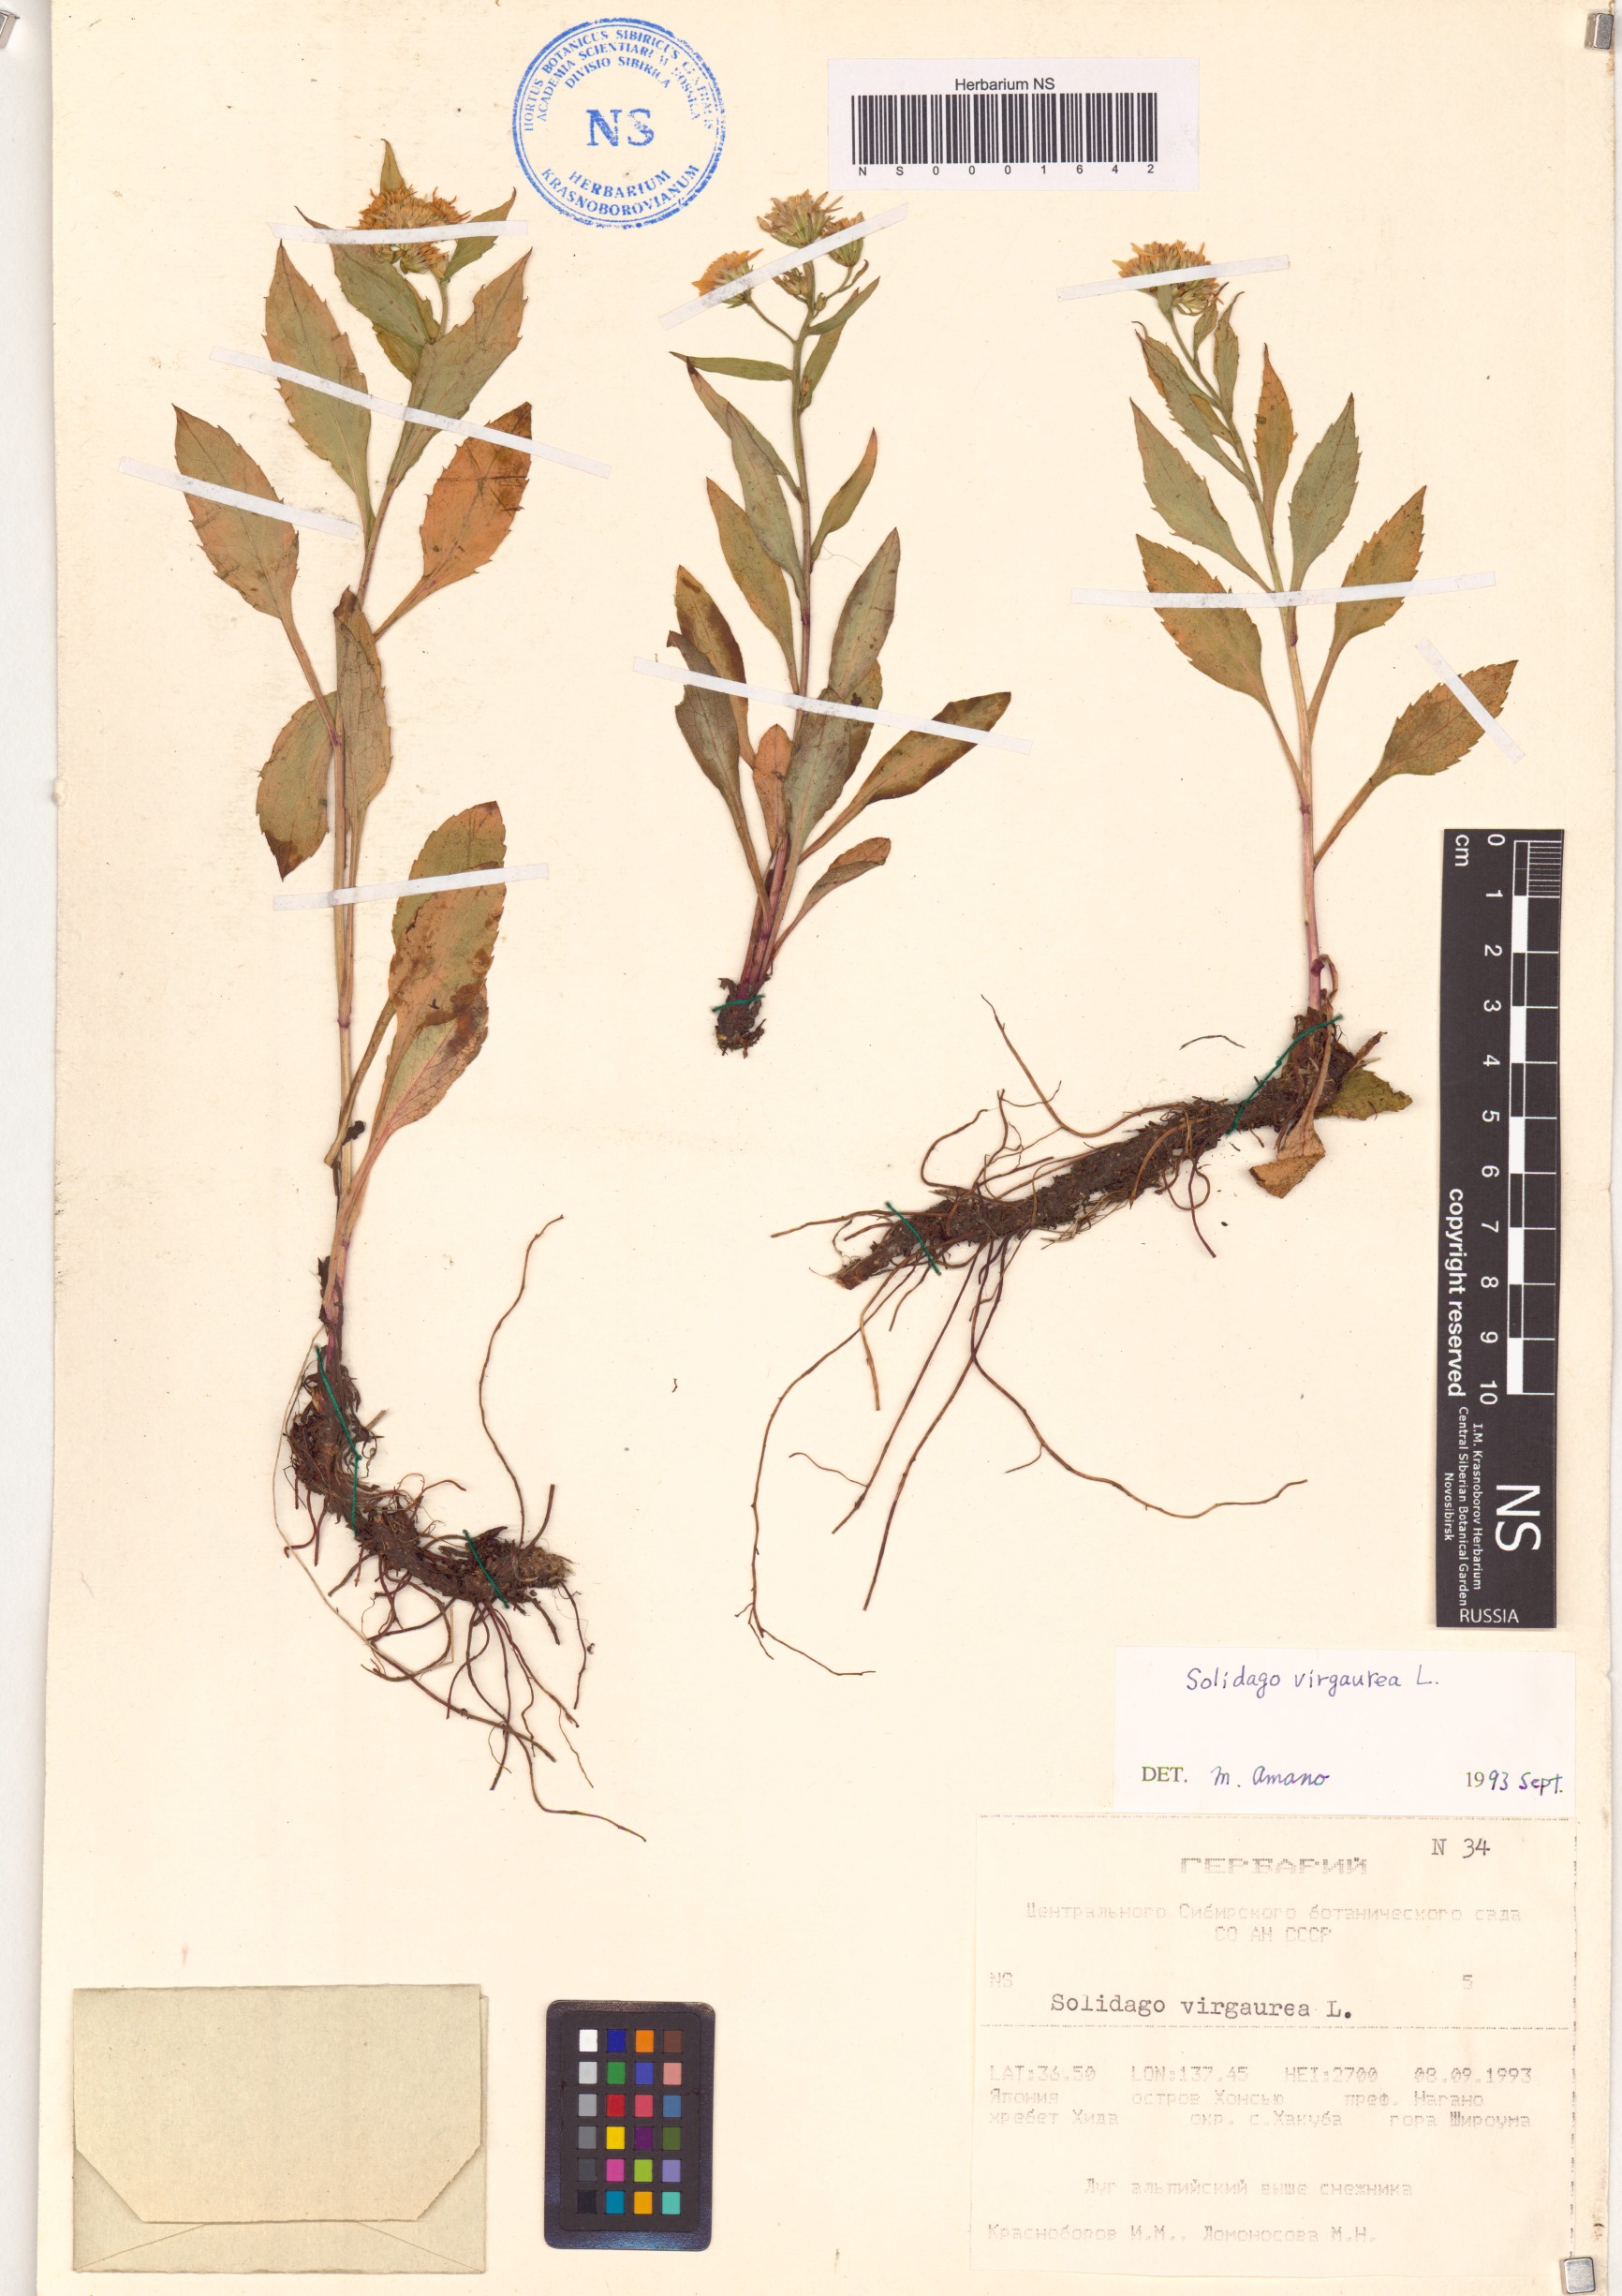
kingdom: Plantae
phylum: Tracheophyta
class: Magnoliopsida
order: Asterales
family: Asteraceae
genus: Solidago
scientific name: Solidago virgaurea
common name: Goldenrod
